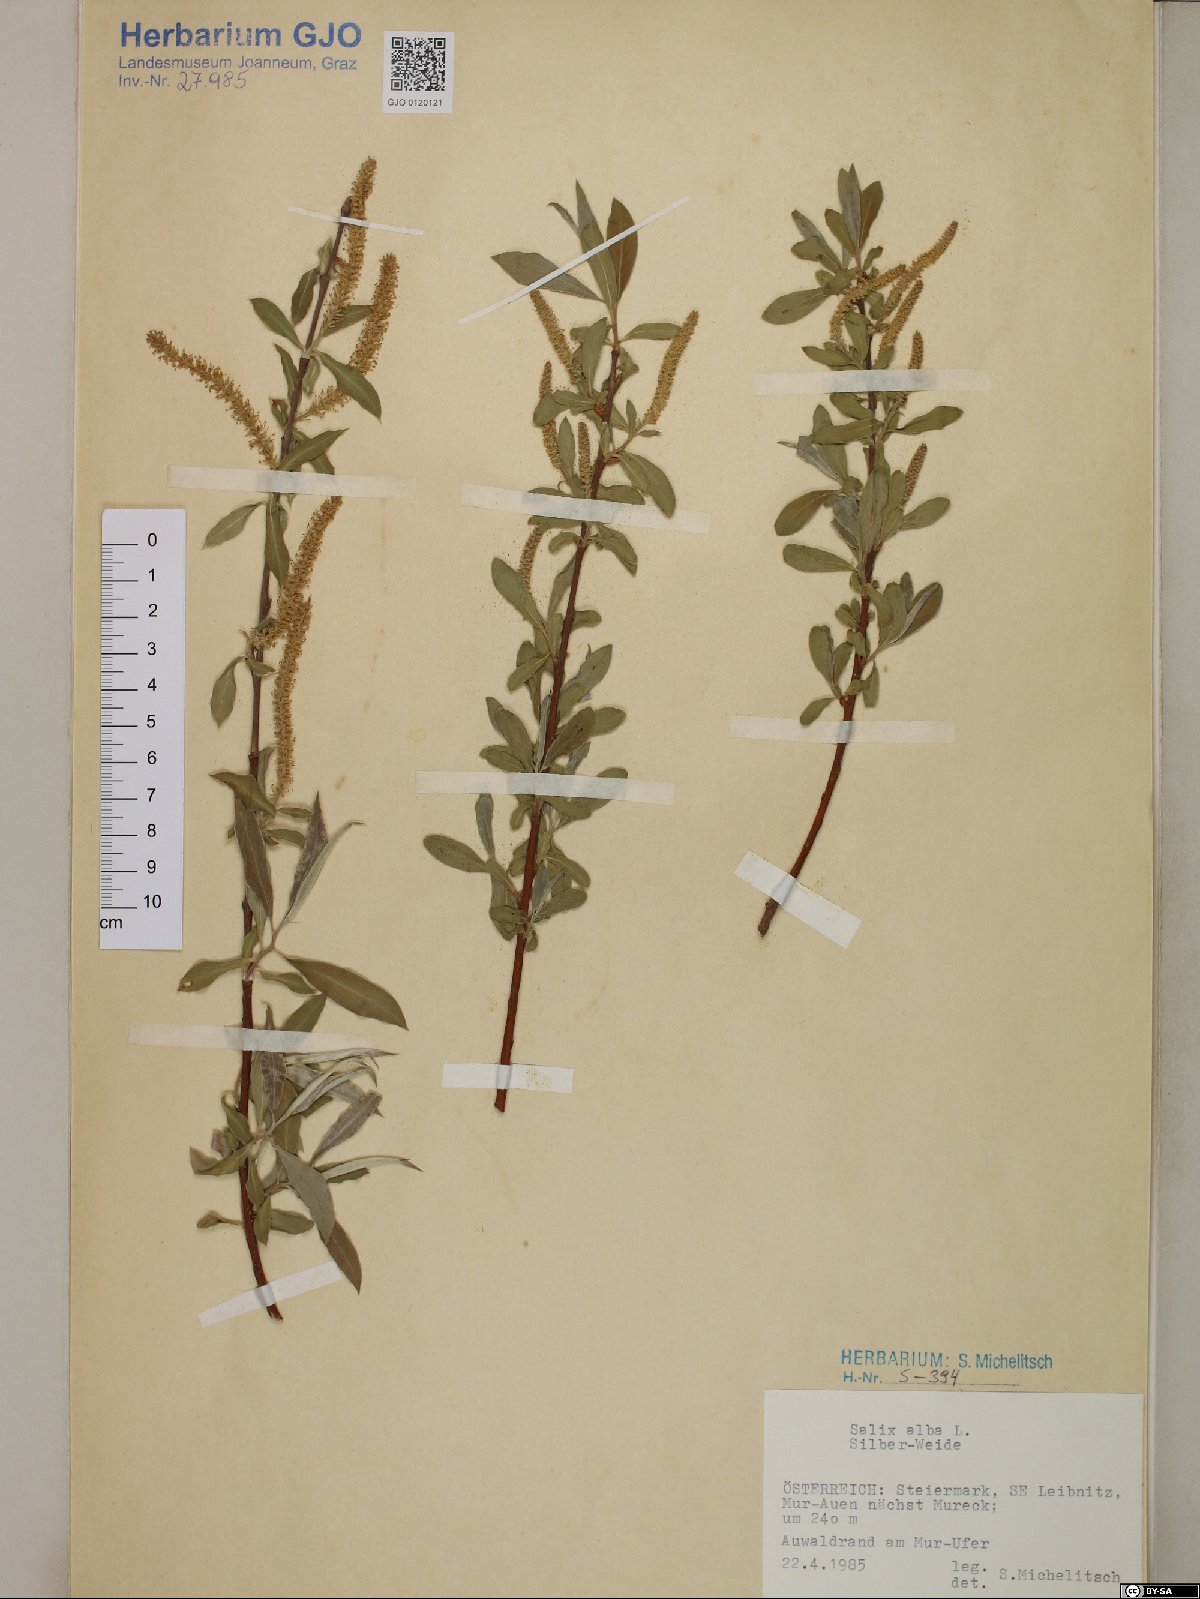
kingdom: Plantae
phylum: Tracheophyta
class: Magnoliopsida
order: Malpighiales
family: Salicaceae
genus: Salix
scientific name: Salix alba
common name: White willow
